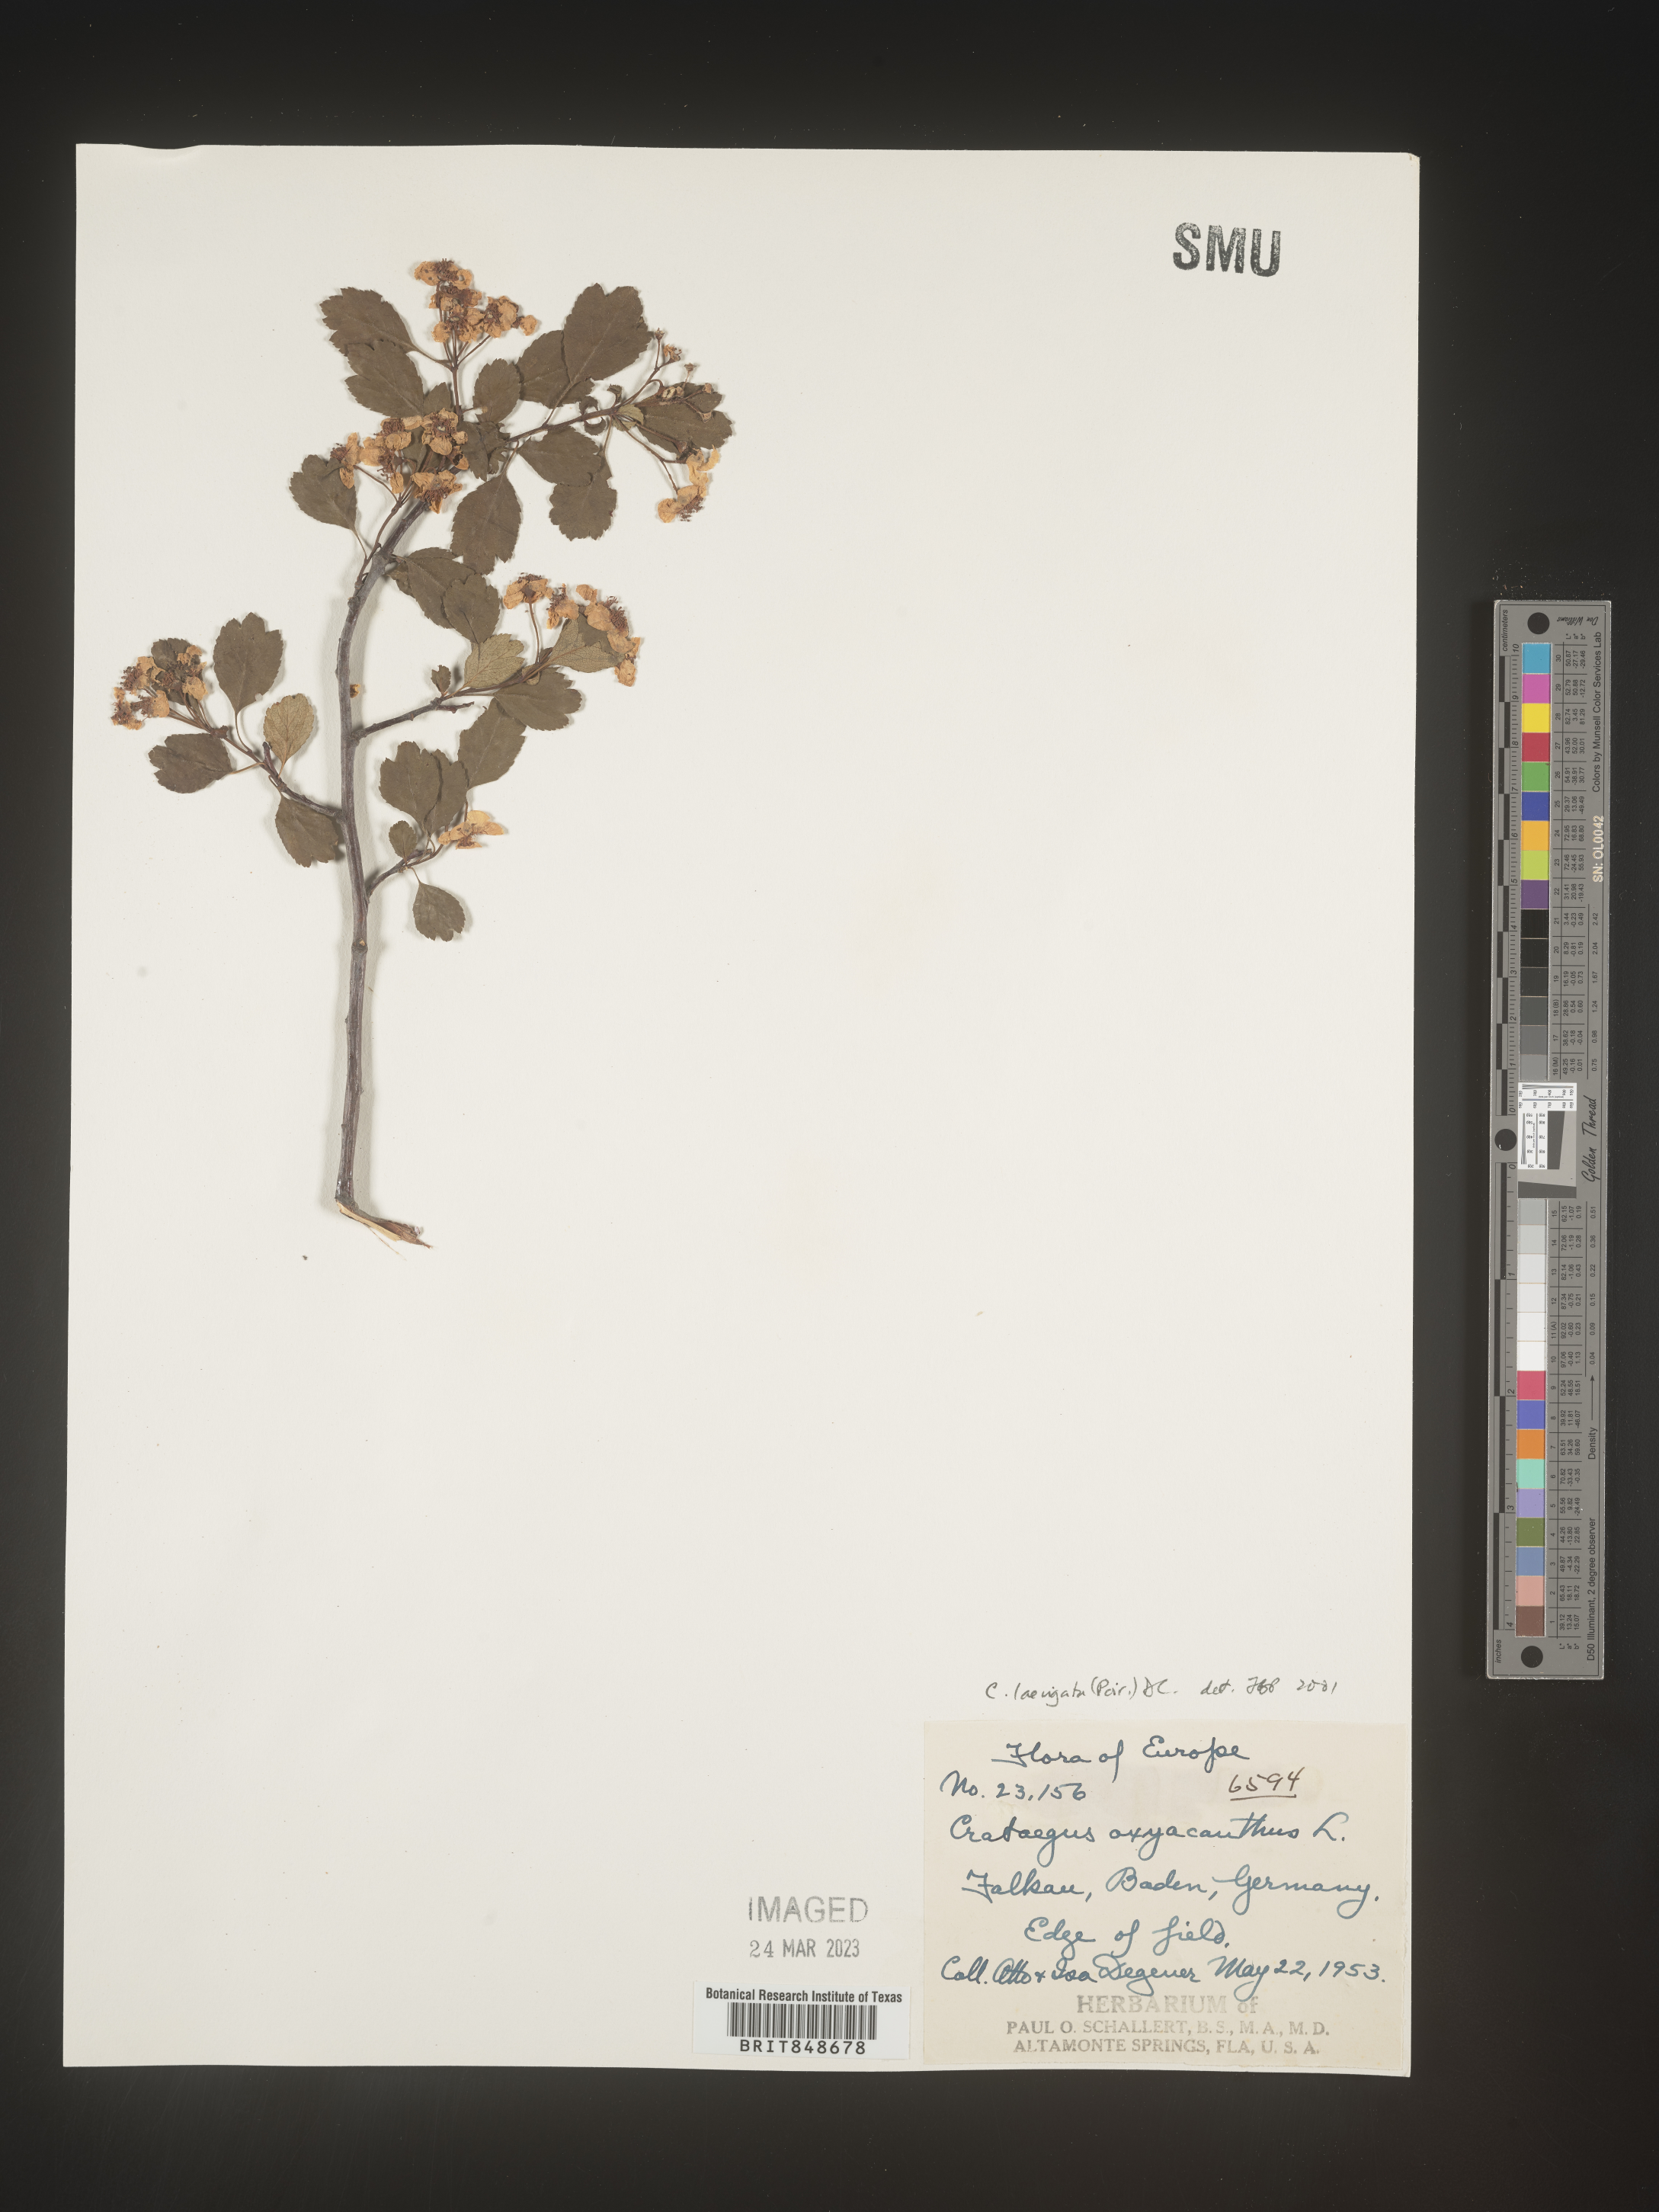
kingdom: Plantae
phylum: Tracheophyta
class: Magnoliopsida
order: Rosales
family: Rosaceae
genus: Crataegus
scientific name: Crataegus
